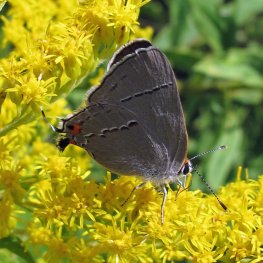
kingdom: Animalia
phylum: Arthropoda
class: Insecta
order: Lepidoptera
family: Lycaenidae
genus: Strymon
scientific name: Strymon melinus
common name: Gray Hairstreak
